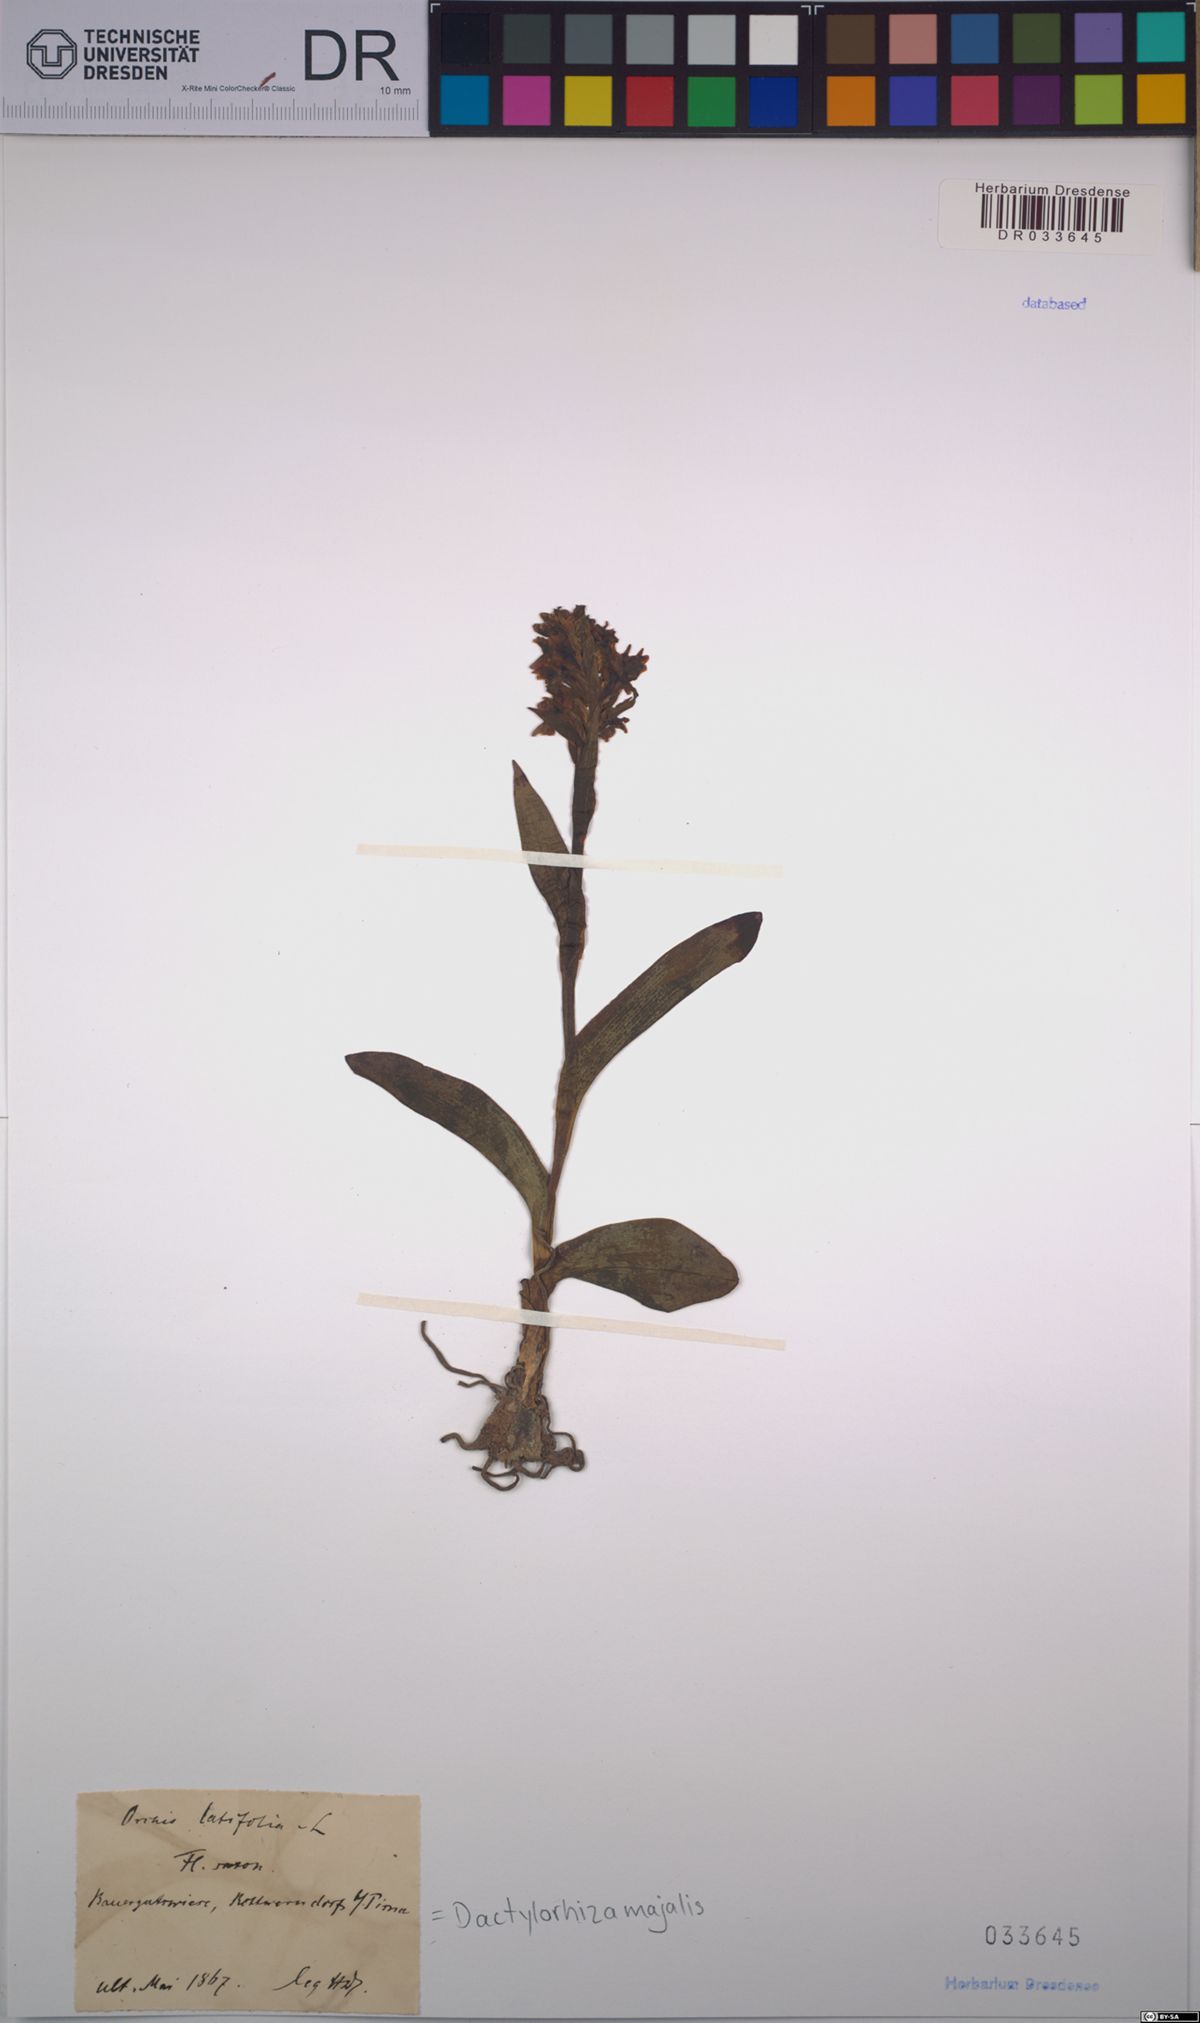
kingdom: Plantae
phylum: Tracheophyta
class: Liliopsida
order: Asparagales
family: Orchidaceae
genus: Dactylorhiza
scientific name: Dactylorhiza majalis
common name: Marsh orchid
